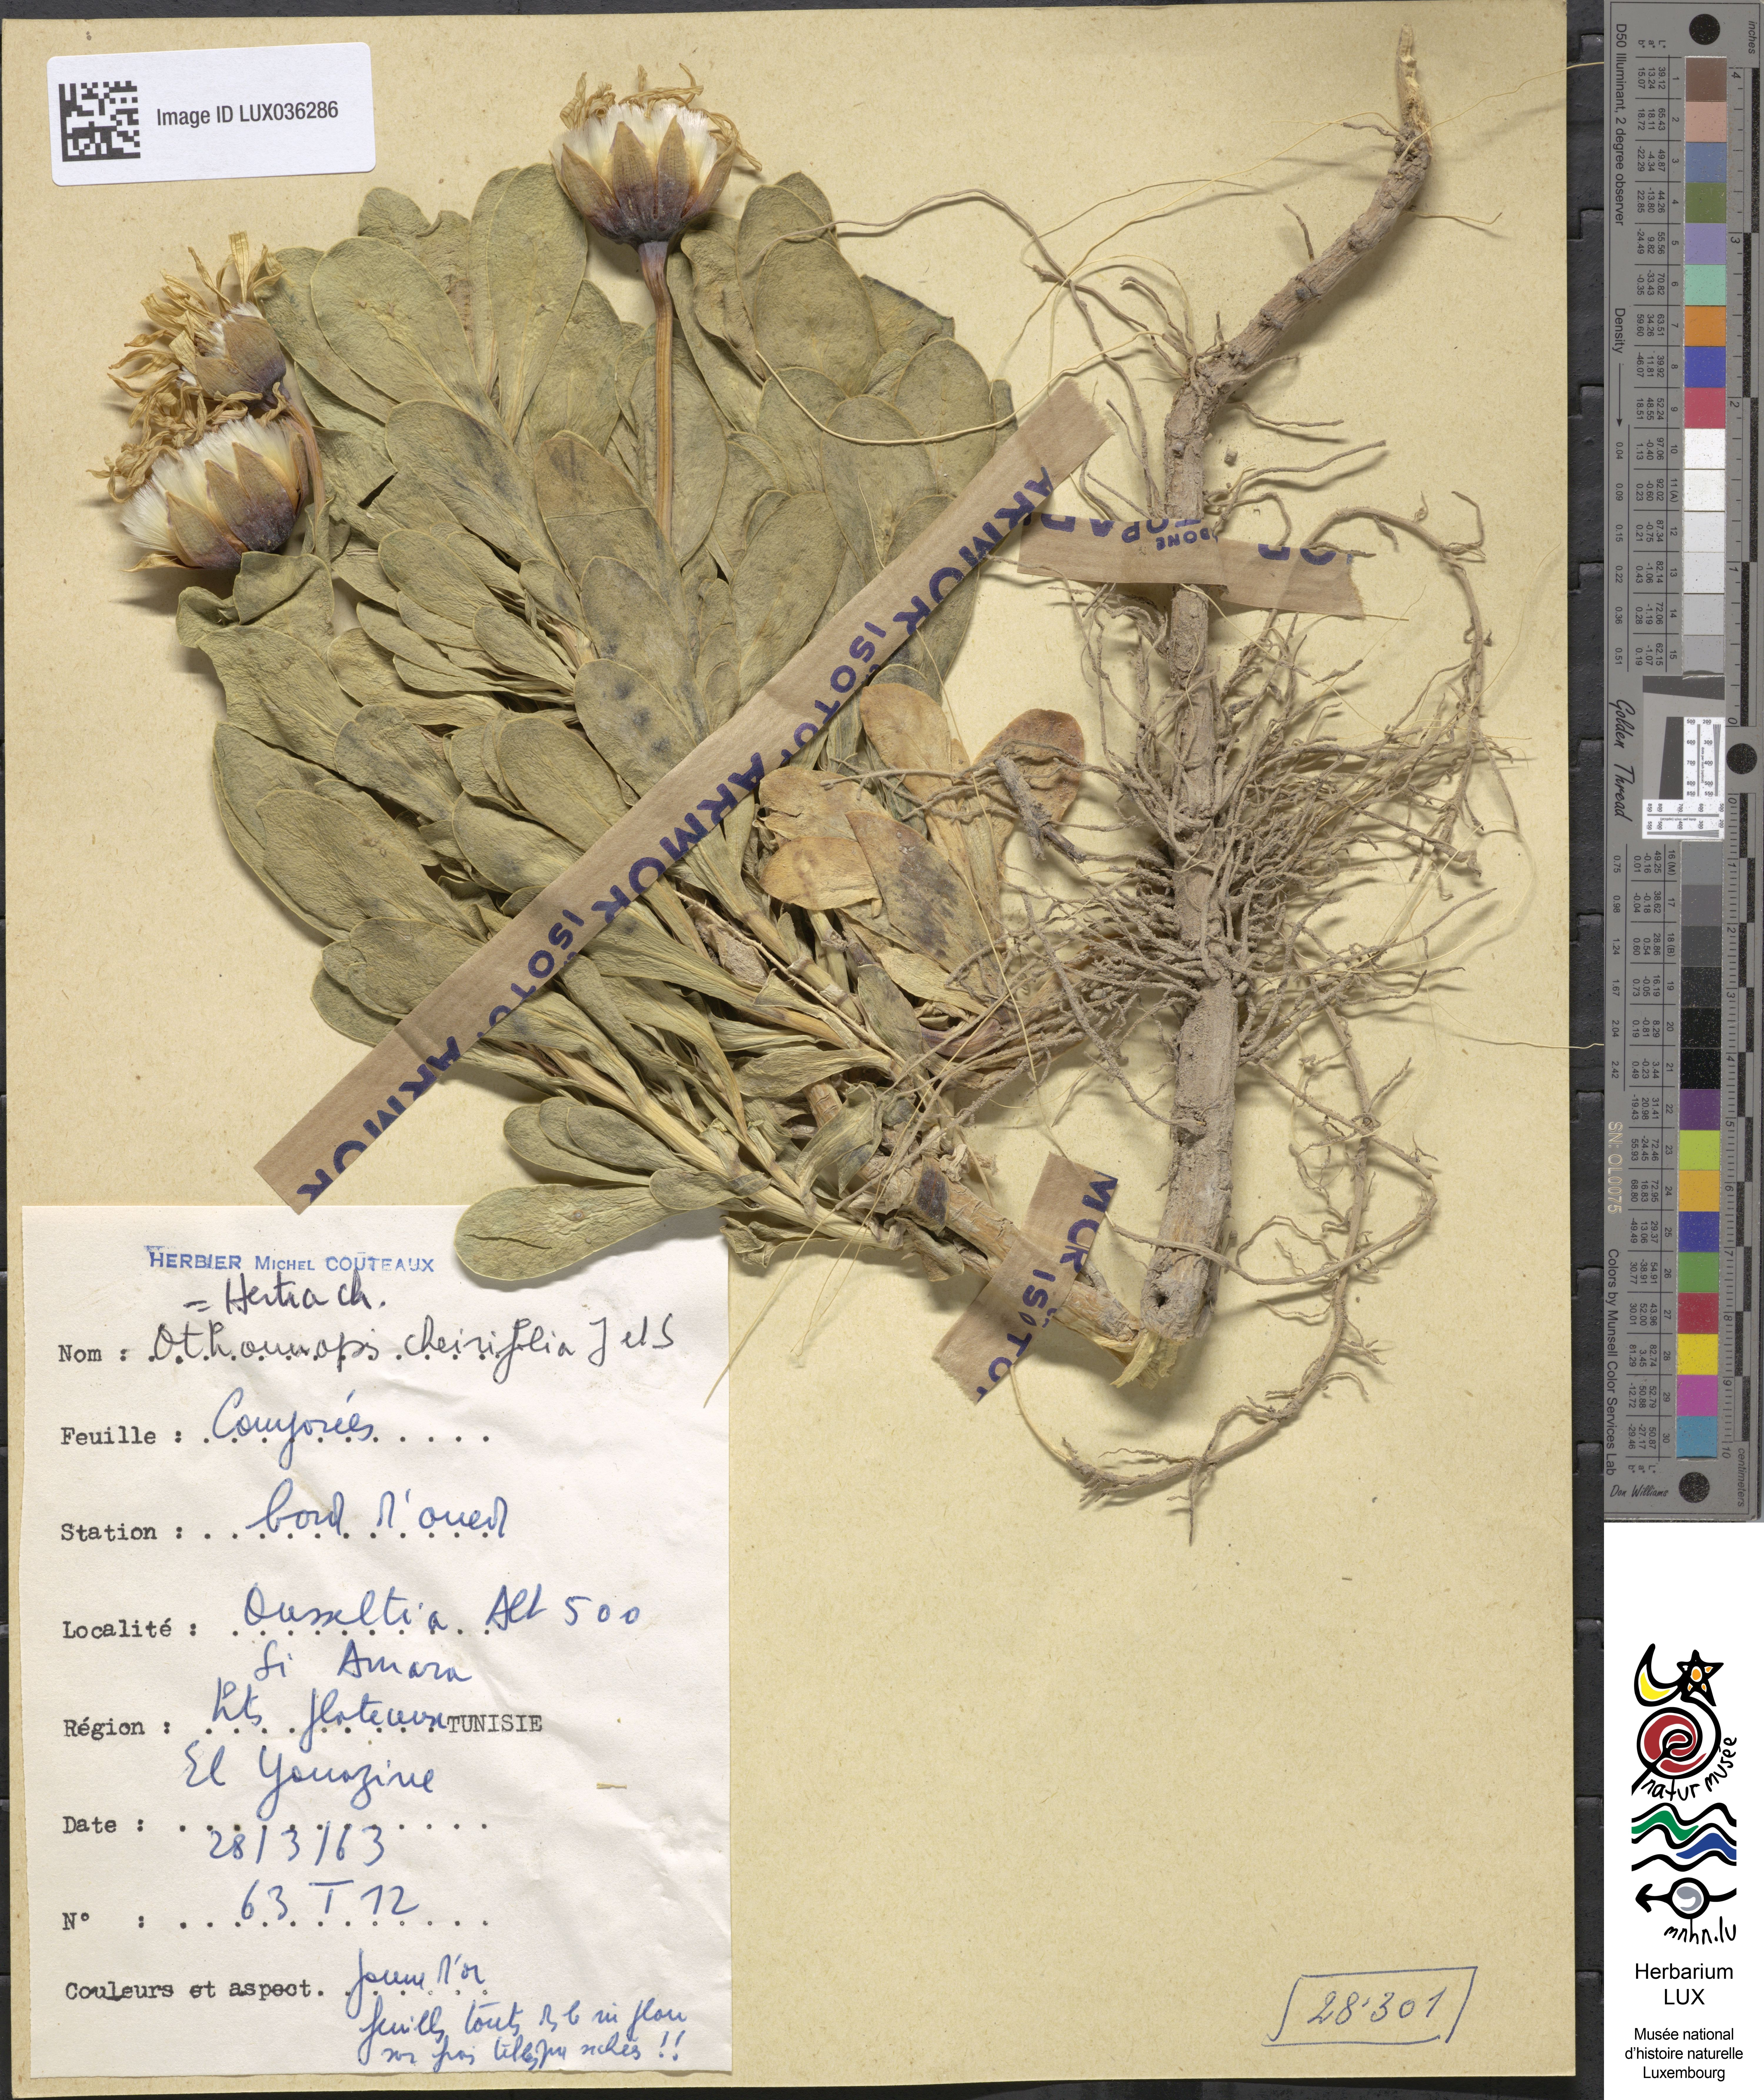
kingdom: Plantae
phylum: Tracheophyta
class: Magnoliopsida
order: Asterales
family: Asteraceae
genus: Hertia
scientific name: Hertia
